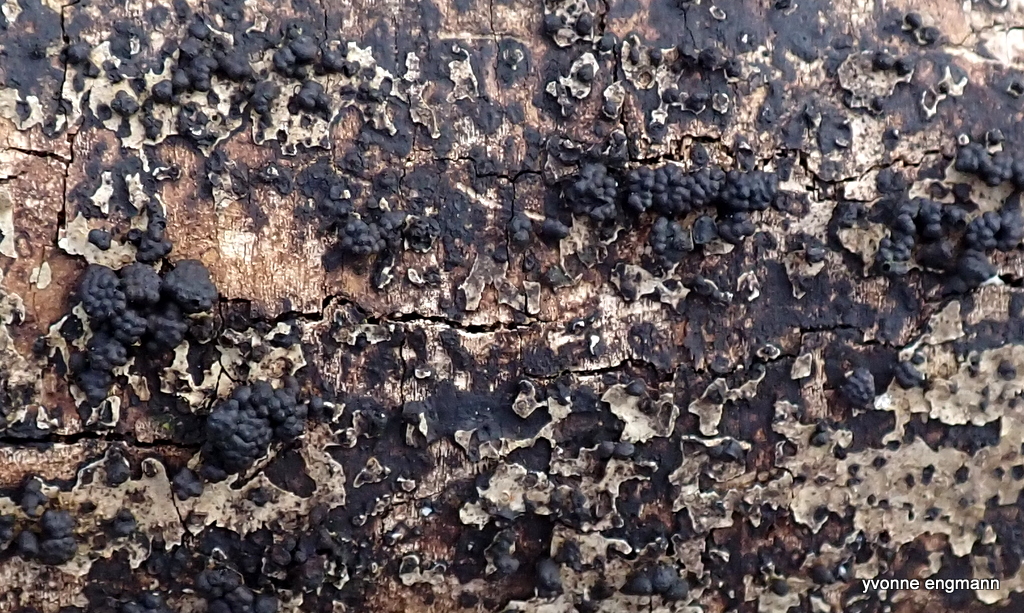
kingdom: Fungi
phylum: Ascomycota
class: Sordariomycetes
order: Xylariales
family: Hypoxylaceae
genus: Jackrogersella
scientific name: Jackrogersella cohaerens
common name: sammenflydende kulbær
